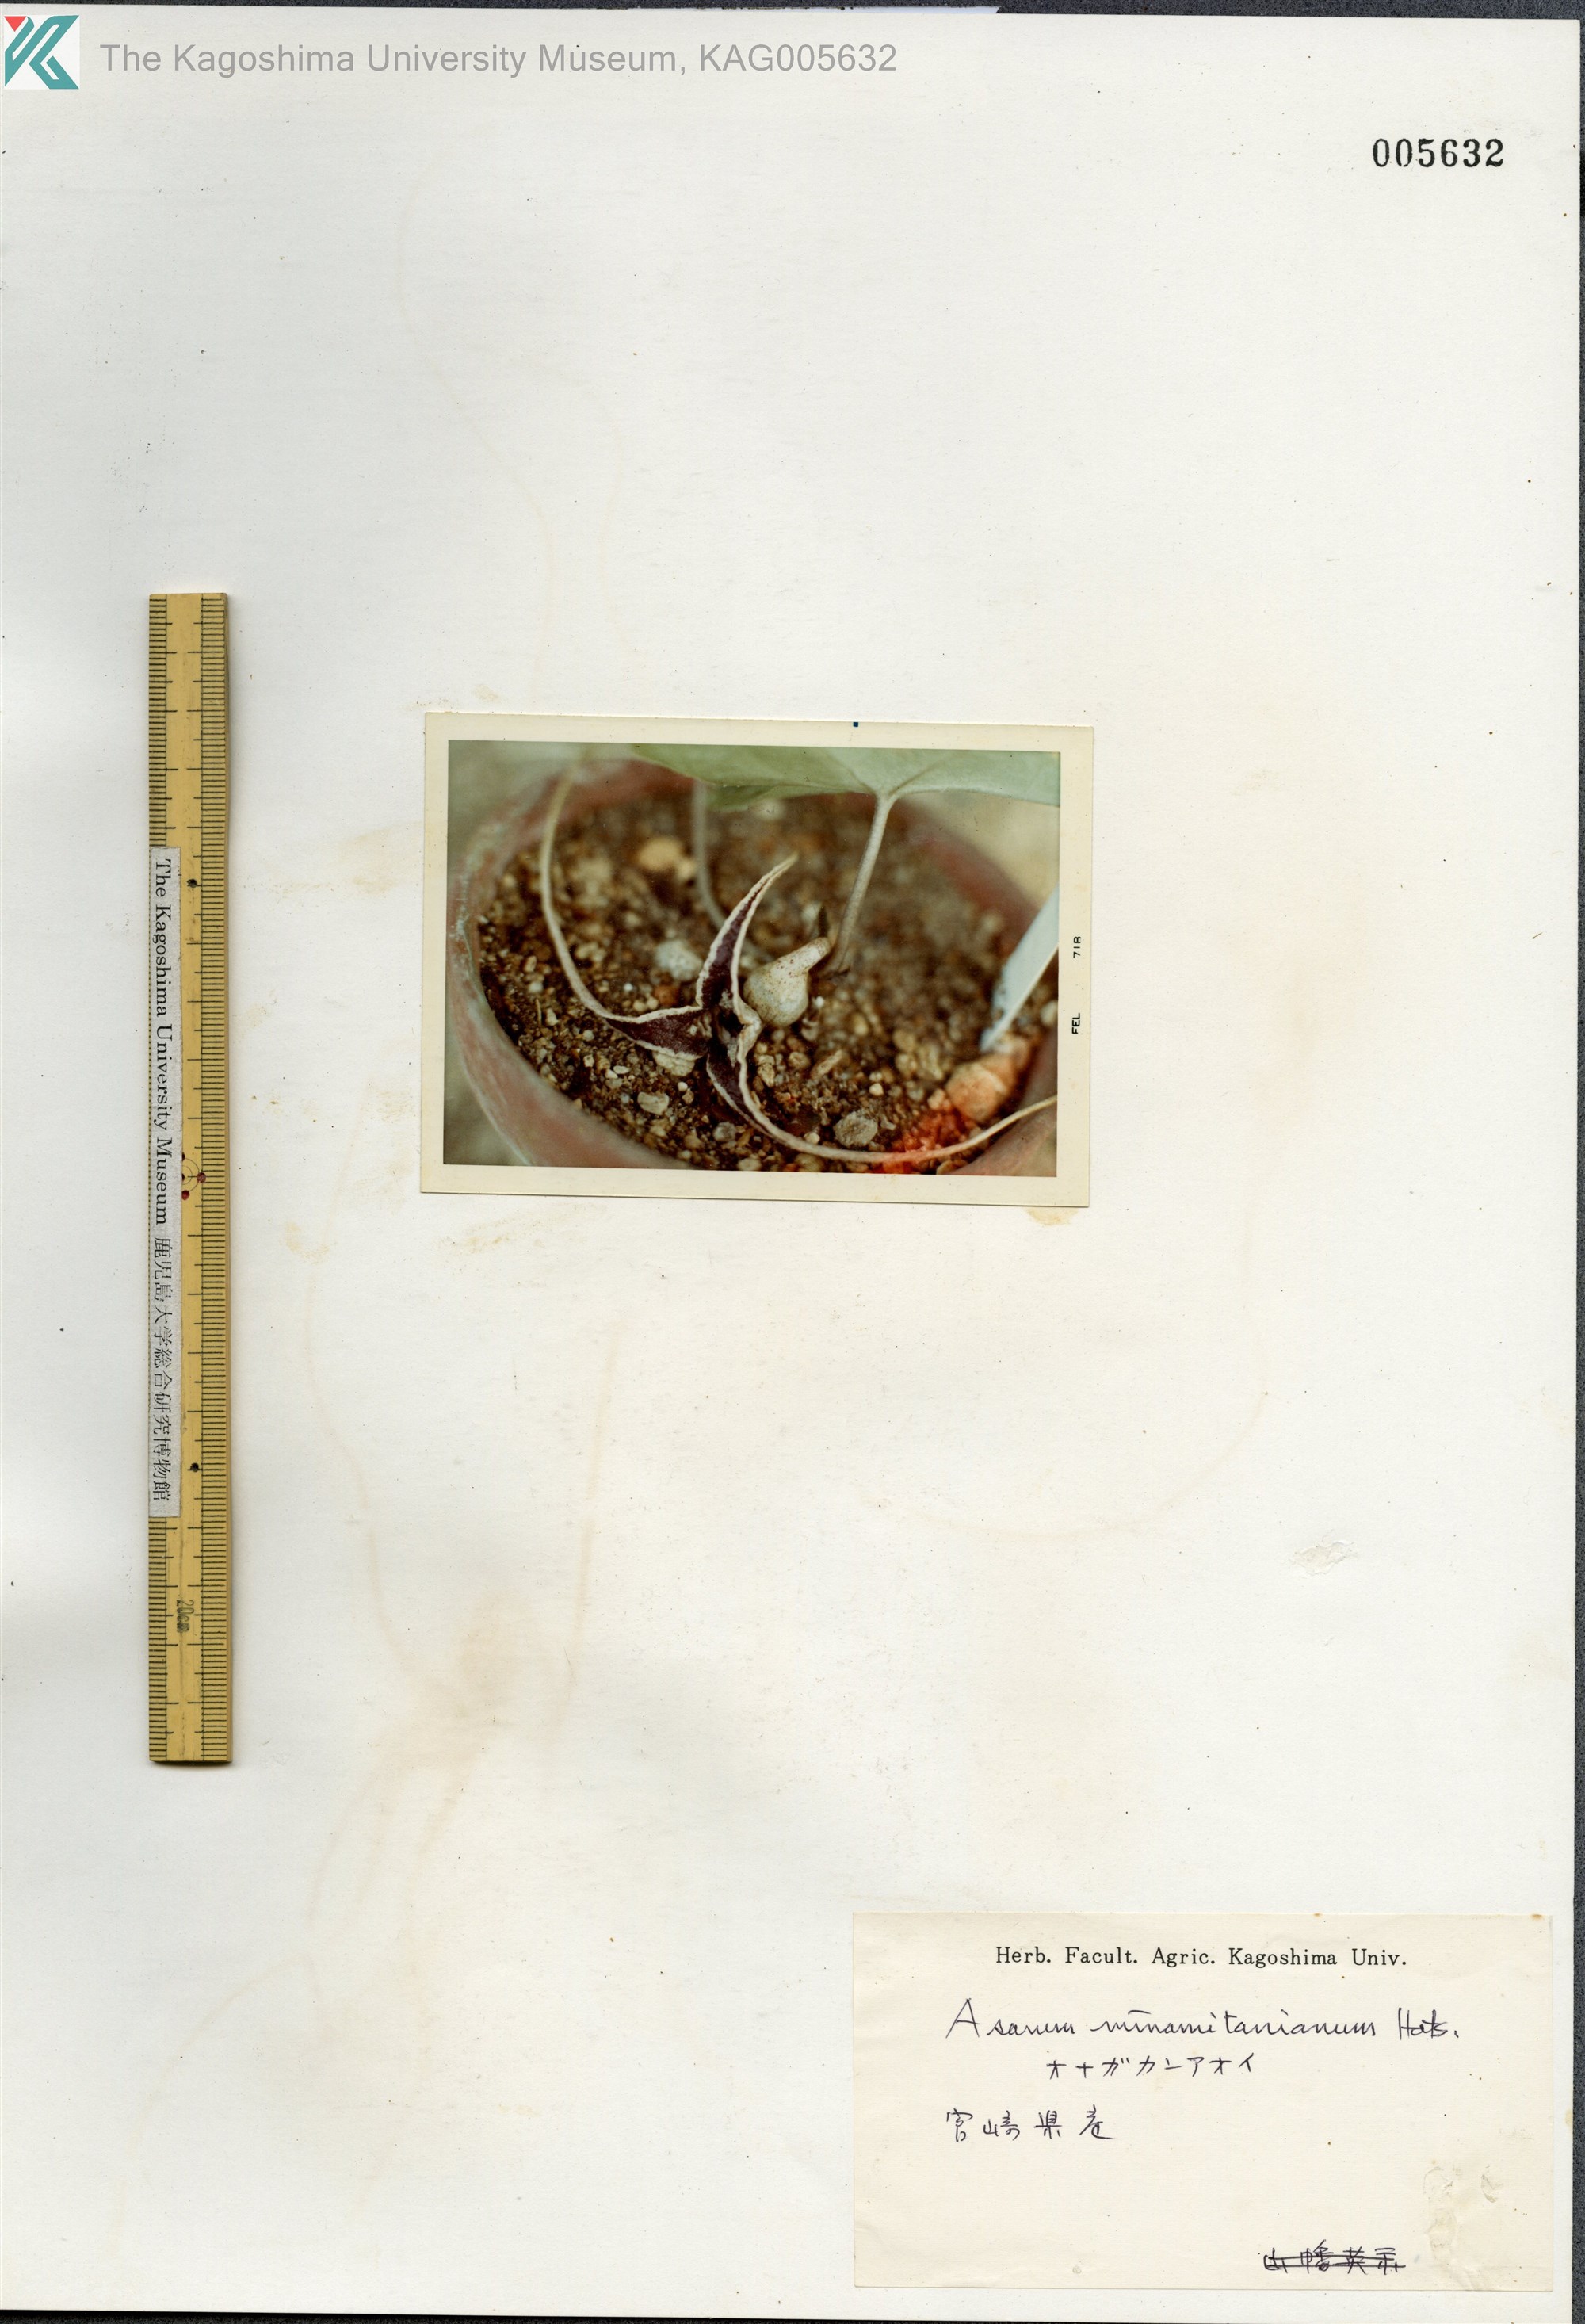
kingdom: Plantae
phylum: Tracheophyta
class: Magnoliopsida
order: Piperales
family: Aristolochiaceae
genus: Asarum
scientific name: Asarum minamitanianum
